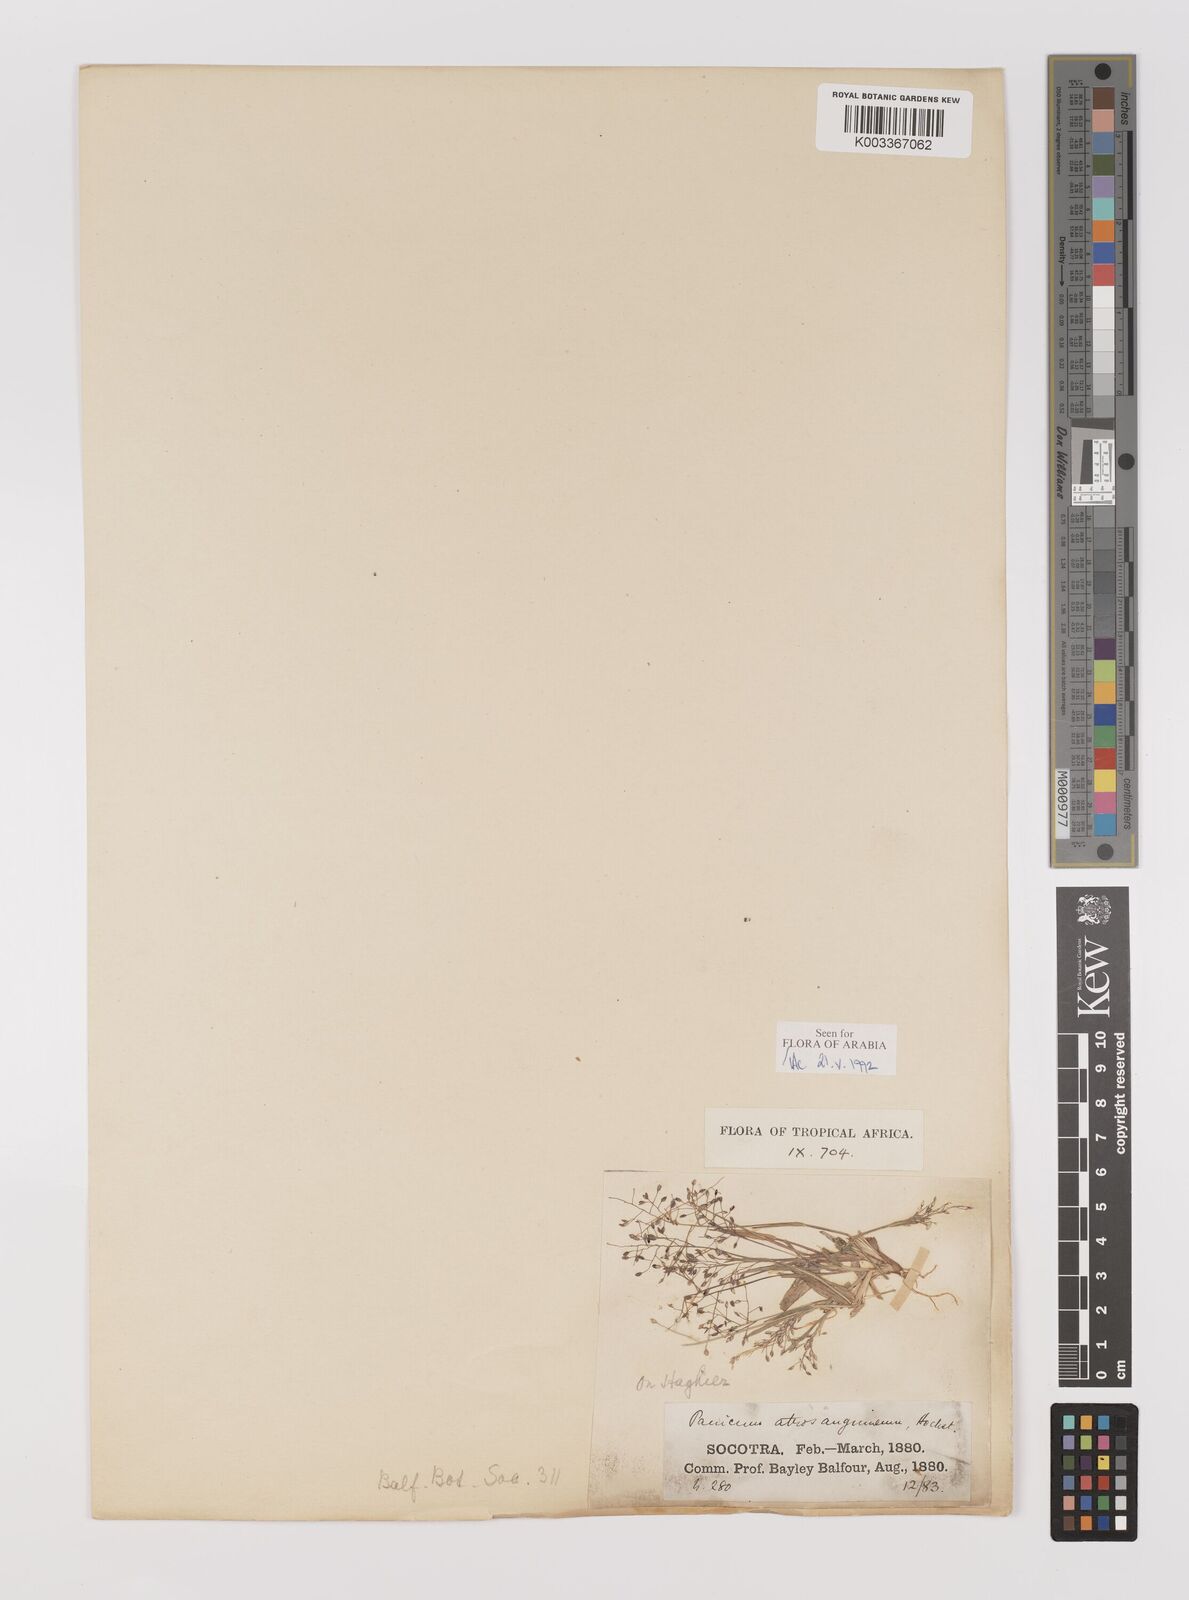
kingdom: Plantae
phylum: Tracheophyta
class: Liliopsida
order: Poales
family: Poaceae
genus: Panicum
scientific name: Panicum atrosanguineum
